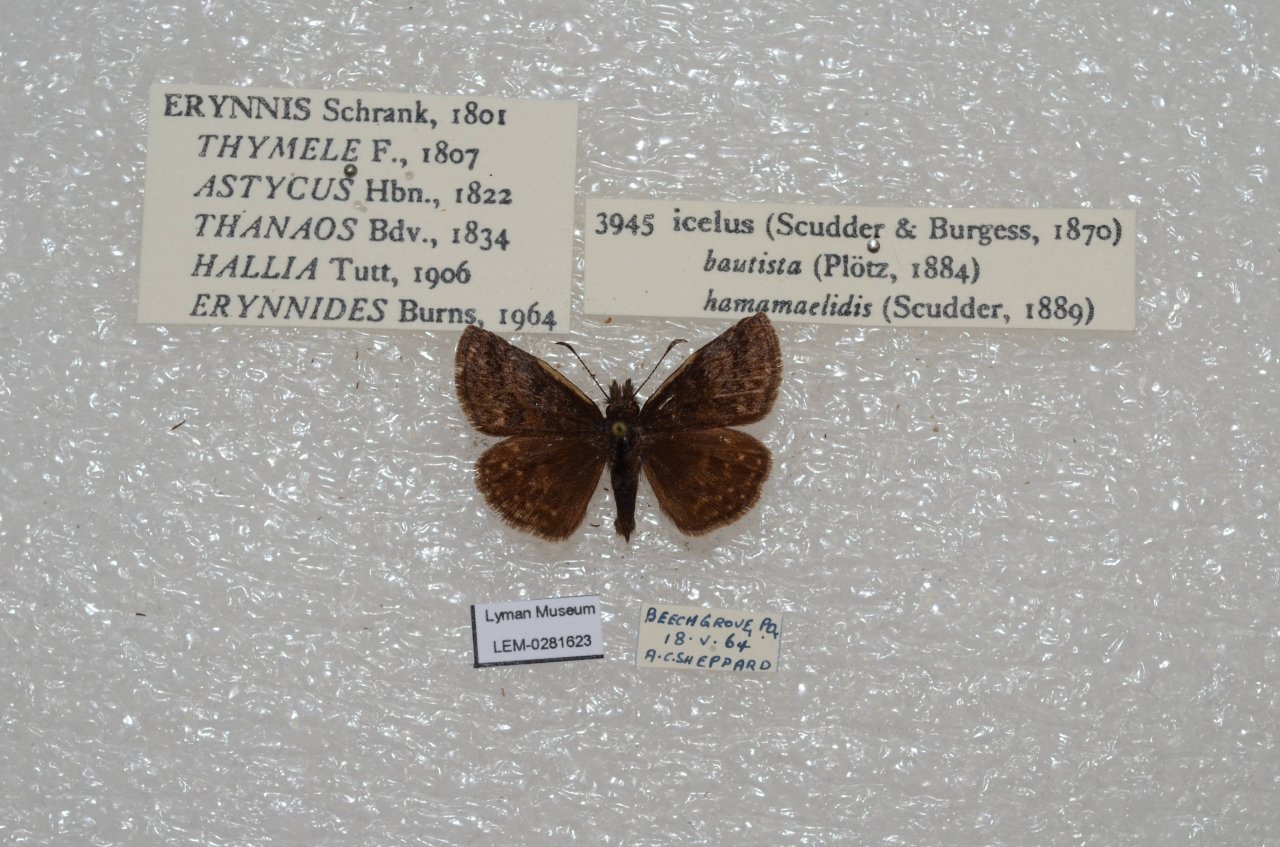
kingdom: Animalia
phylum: Arthropoda
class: Insecta
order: Lepidoptera
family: Hesperiidae
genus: Erynnis
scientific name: Erynnis icelus
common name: Dreamy Duskywing
